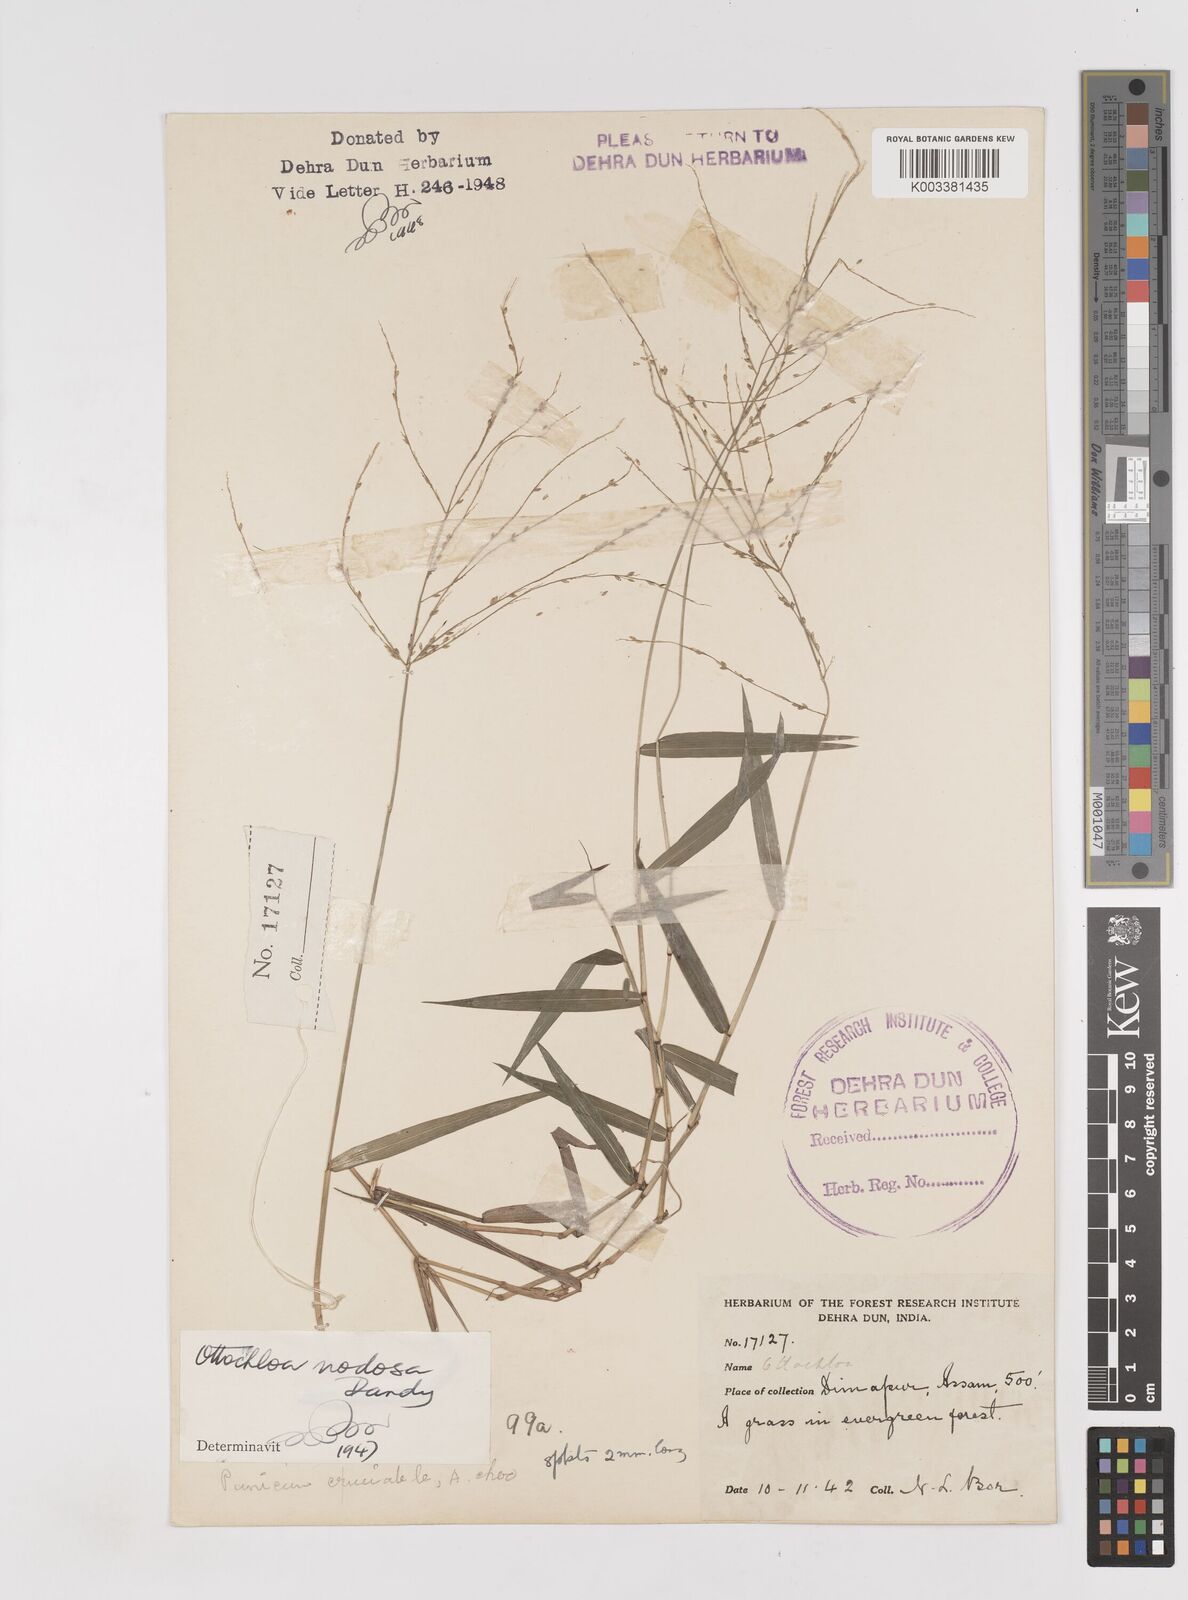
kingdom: Plantae
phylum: Tracheophyta
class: Liliopsida
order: Poales
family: Poaceae
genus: Ottochloa
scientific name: Ottochloa nodosa
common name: Slender-panic grass
